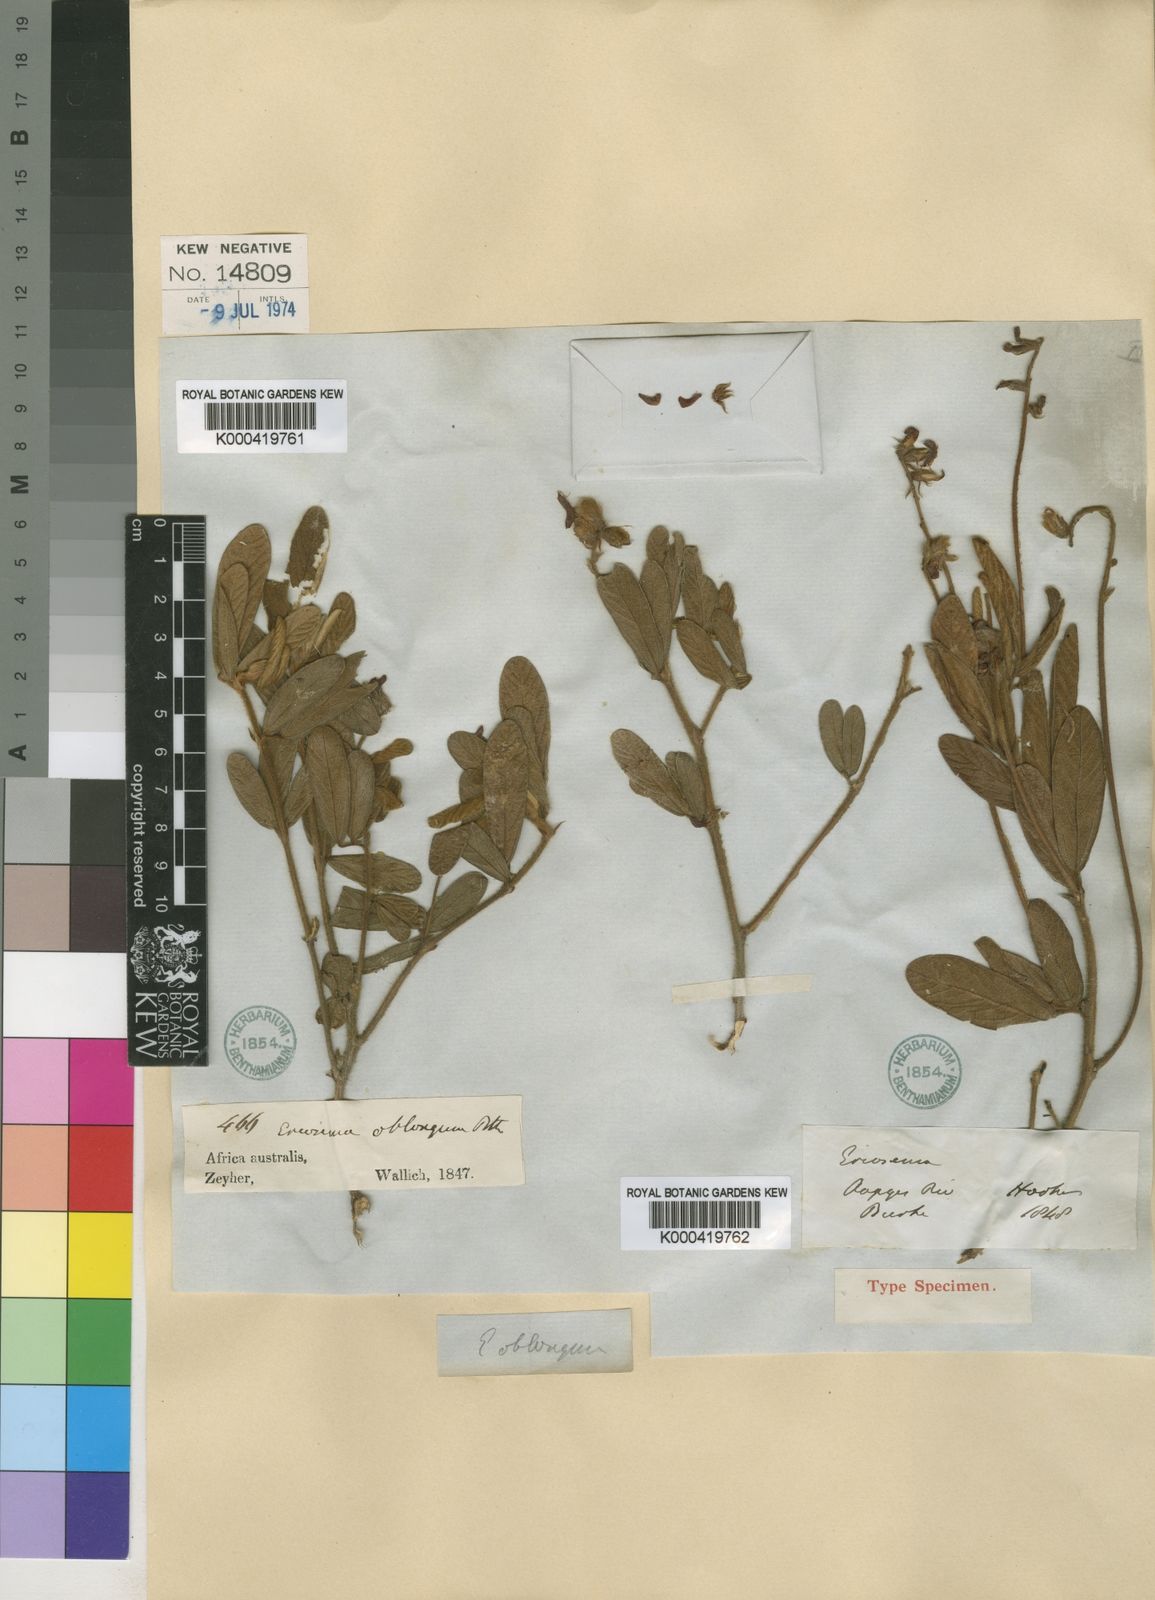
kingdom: Plantae
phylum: Tracheophyta
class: Magnoliopsida
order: Fabales
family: Fabaceae
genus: Eriosema
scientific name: Eriosema pauciflorum
